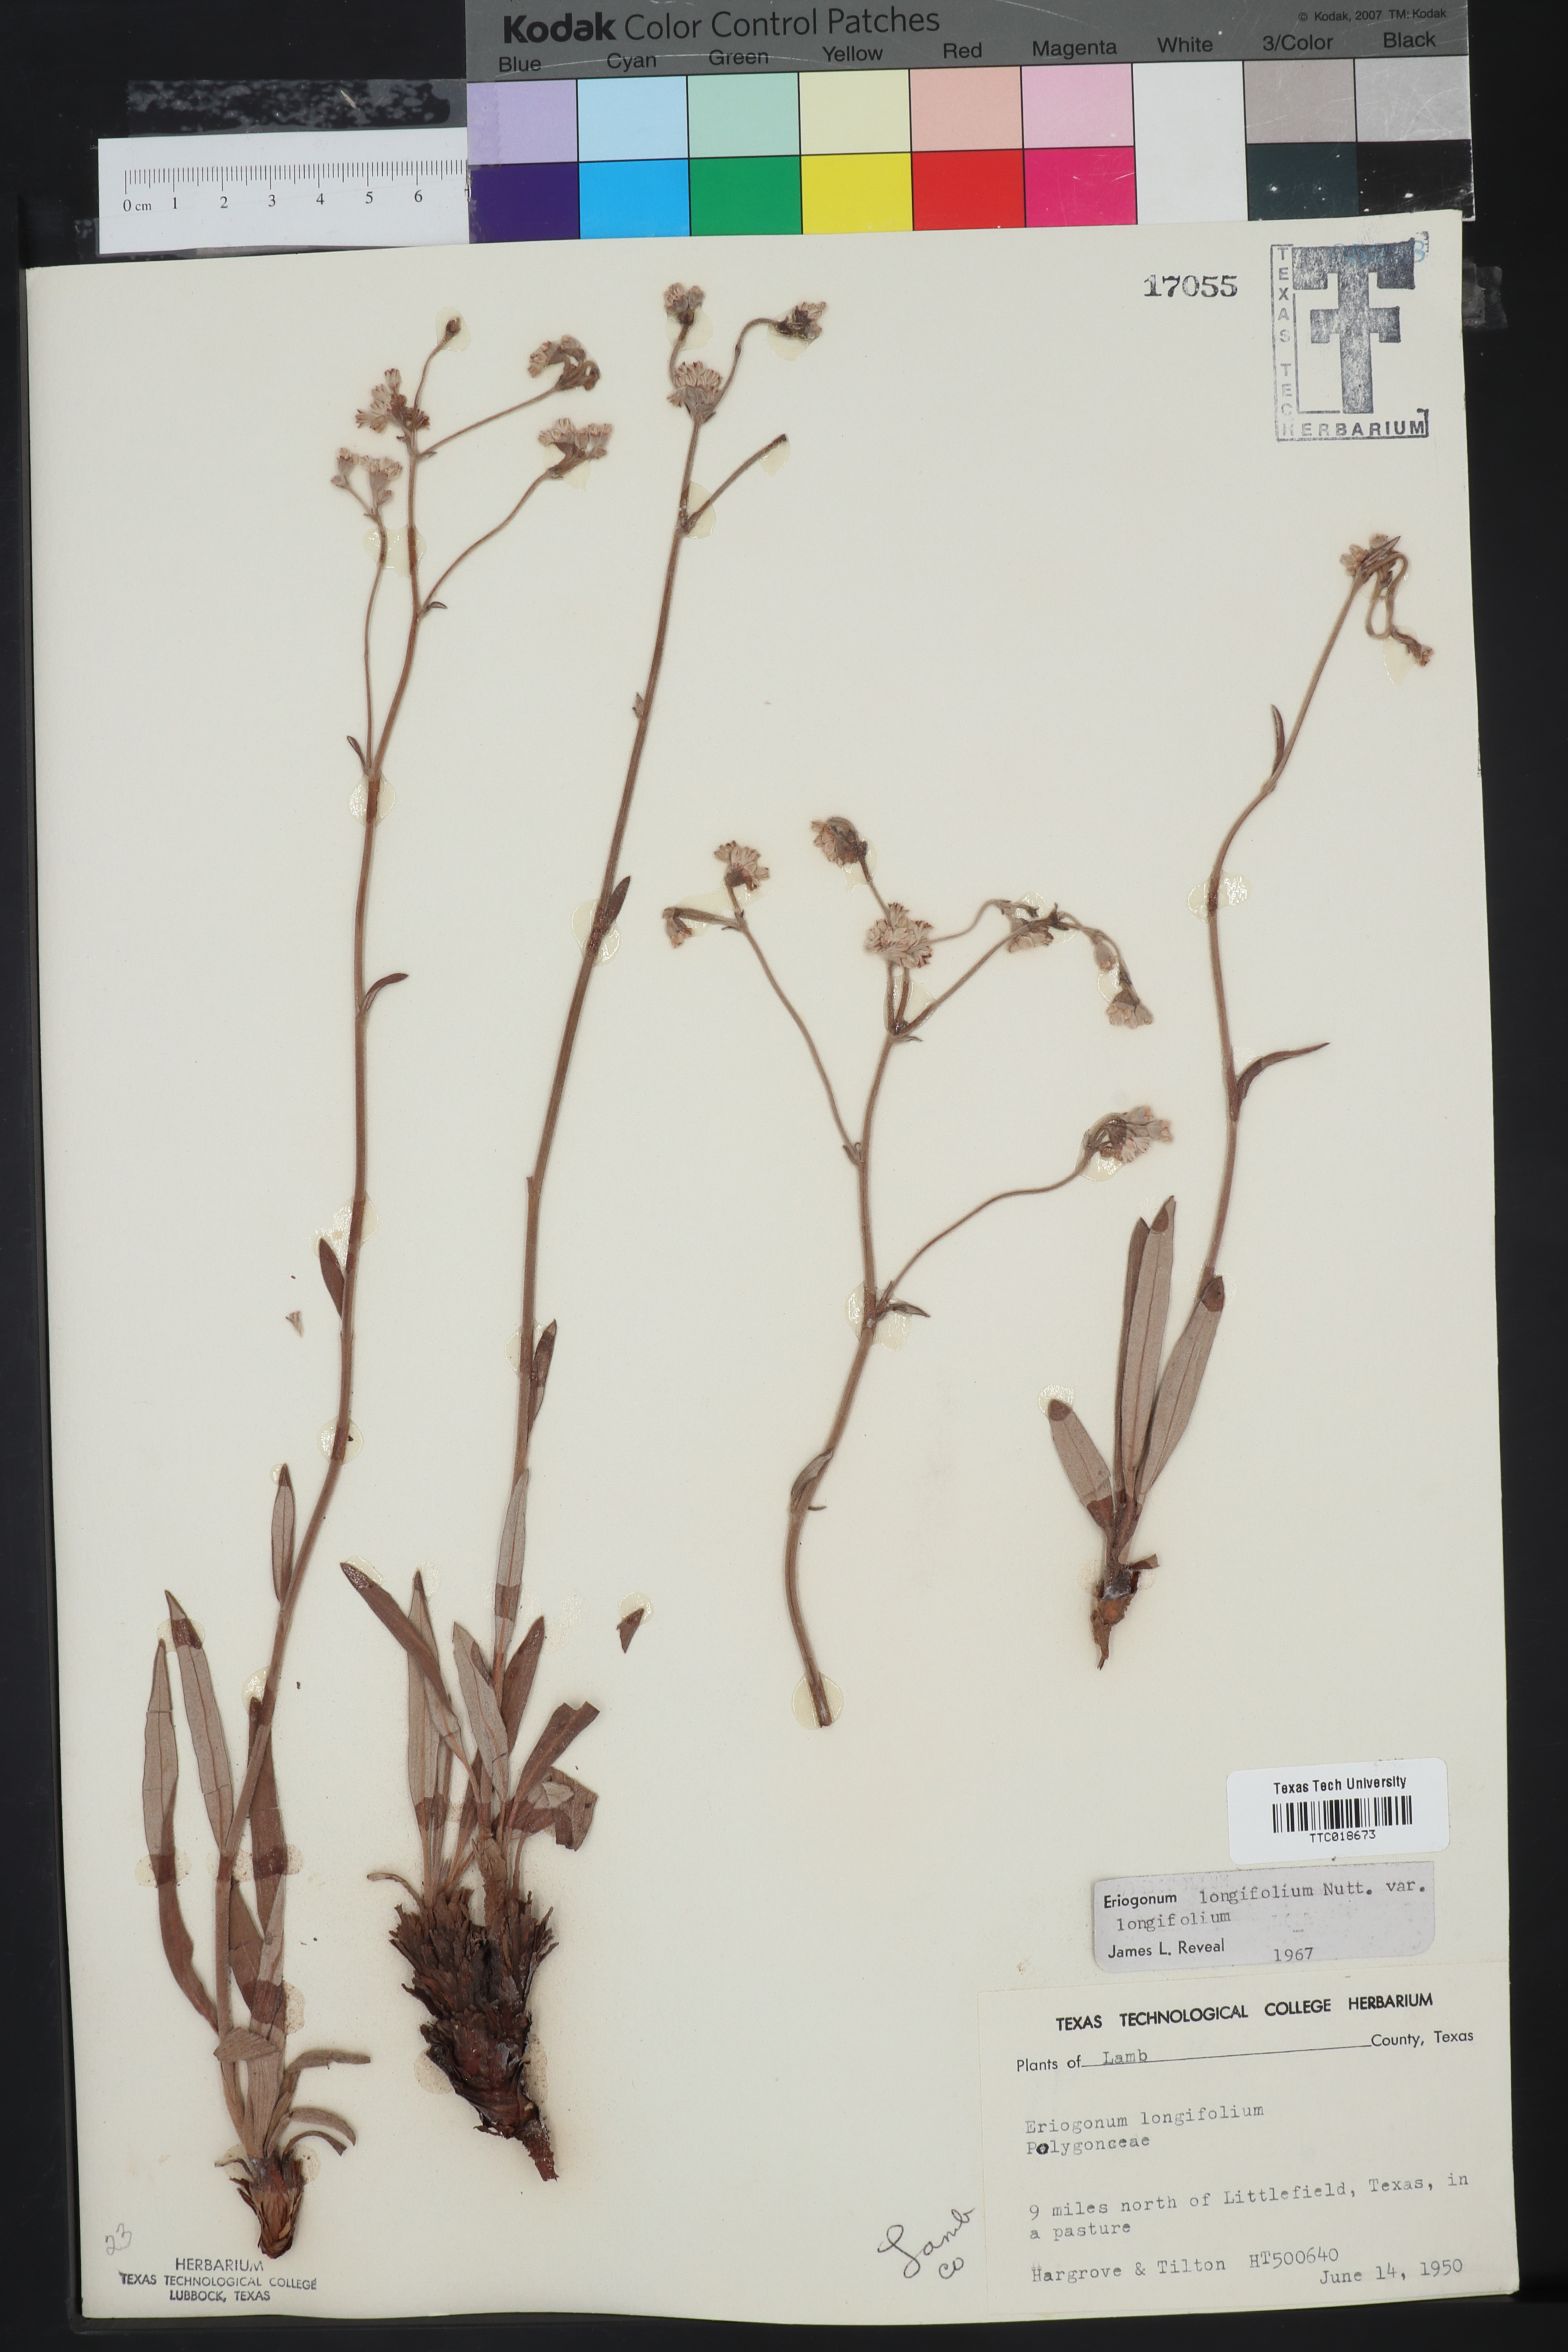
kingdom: Plantae
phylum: Tracheophyta
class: Magnoliopsida
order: Caryophyllales
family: Polygonaceae
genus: Eriogonum
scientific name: Eriogonum longifolium
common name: Longleaf wild buckwheat
